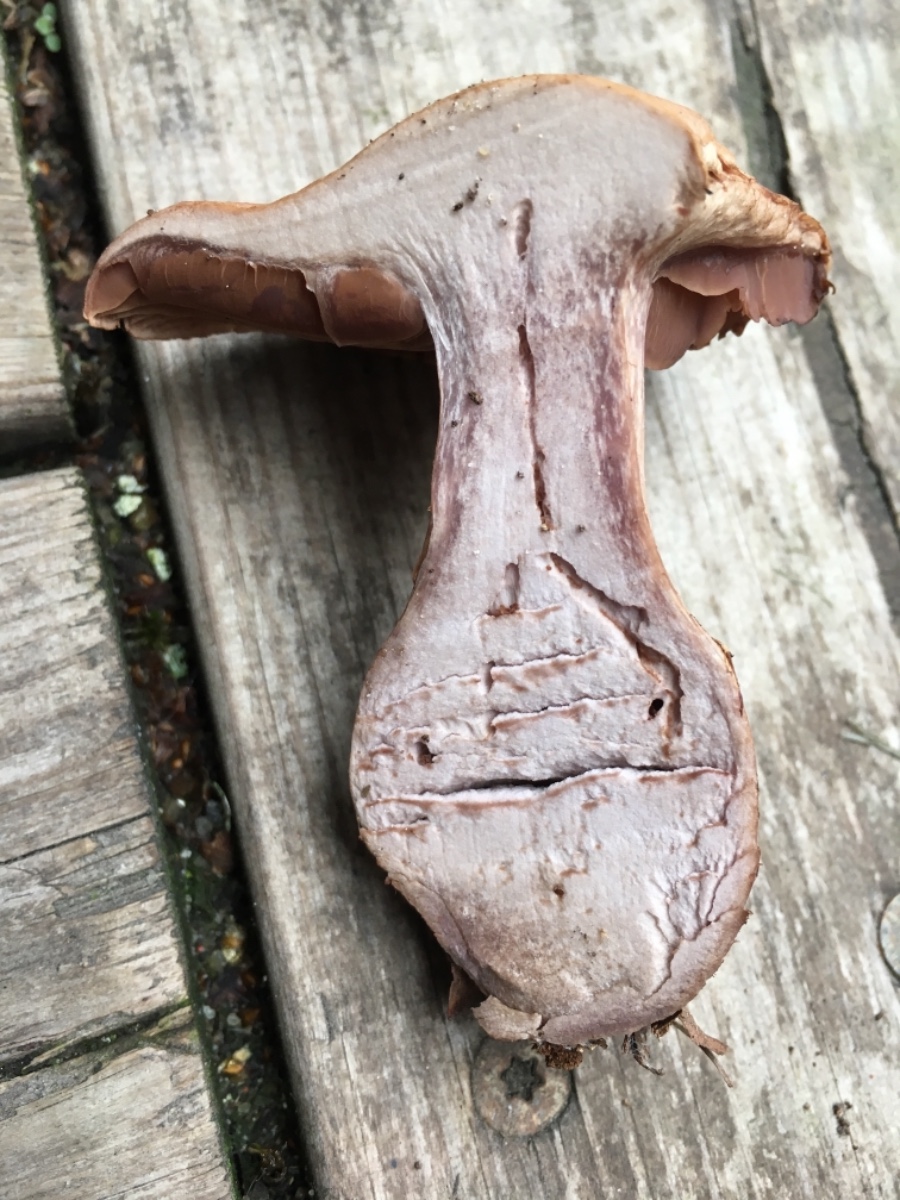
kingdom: Fungi
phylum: Basidiomycota
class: Agaricomycetes
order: Agaricales
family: Cortinariaceae
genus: Cortinarius
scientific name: Cortinarius
